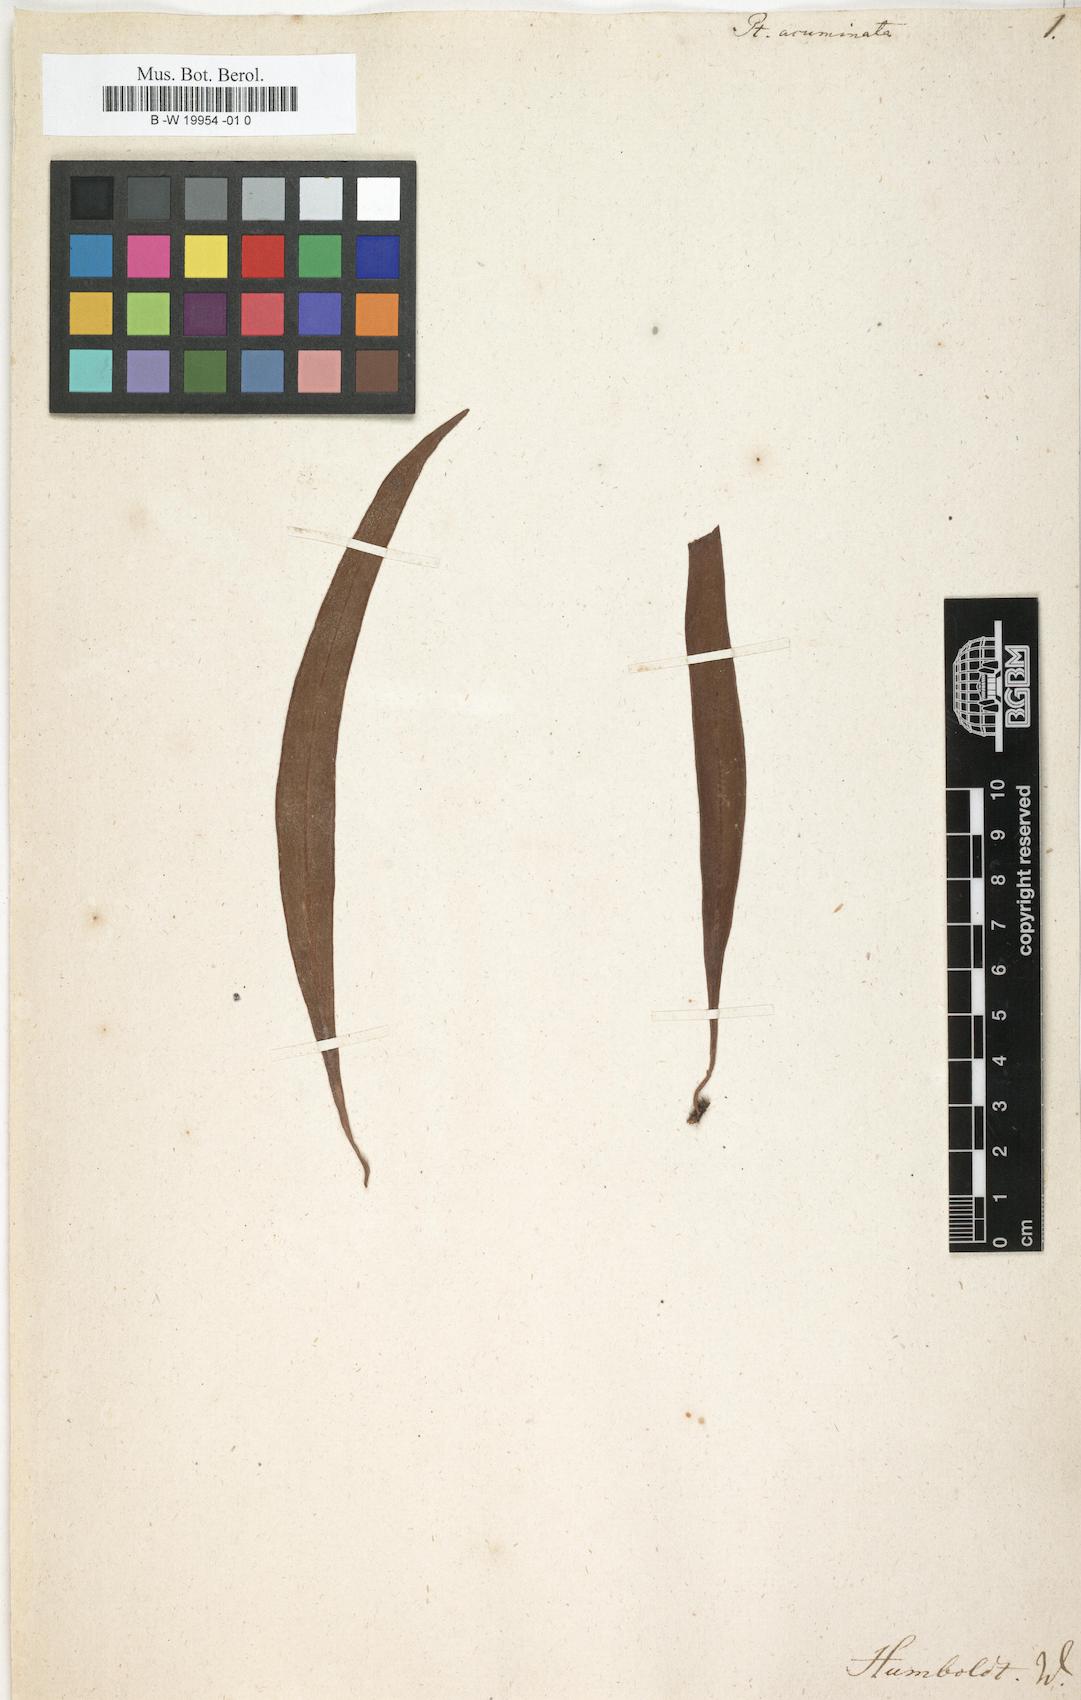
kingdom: Plantae
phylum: Tracheophyta
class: Polypodiopsida
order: Polypodiales
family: Pteridaceae
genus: Pteris
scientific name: Pteris
